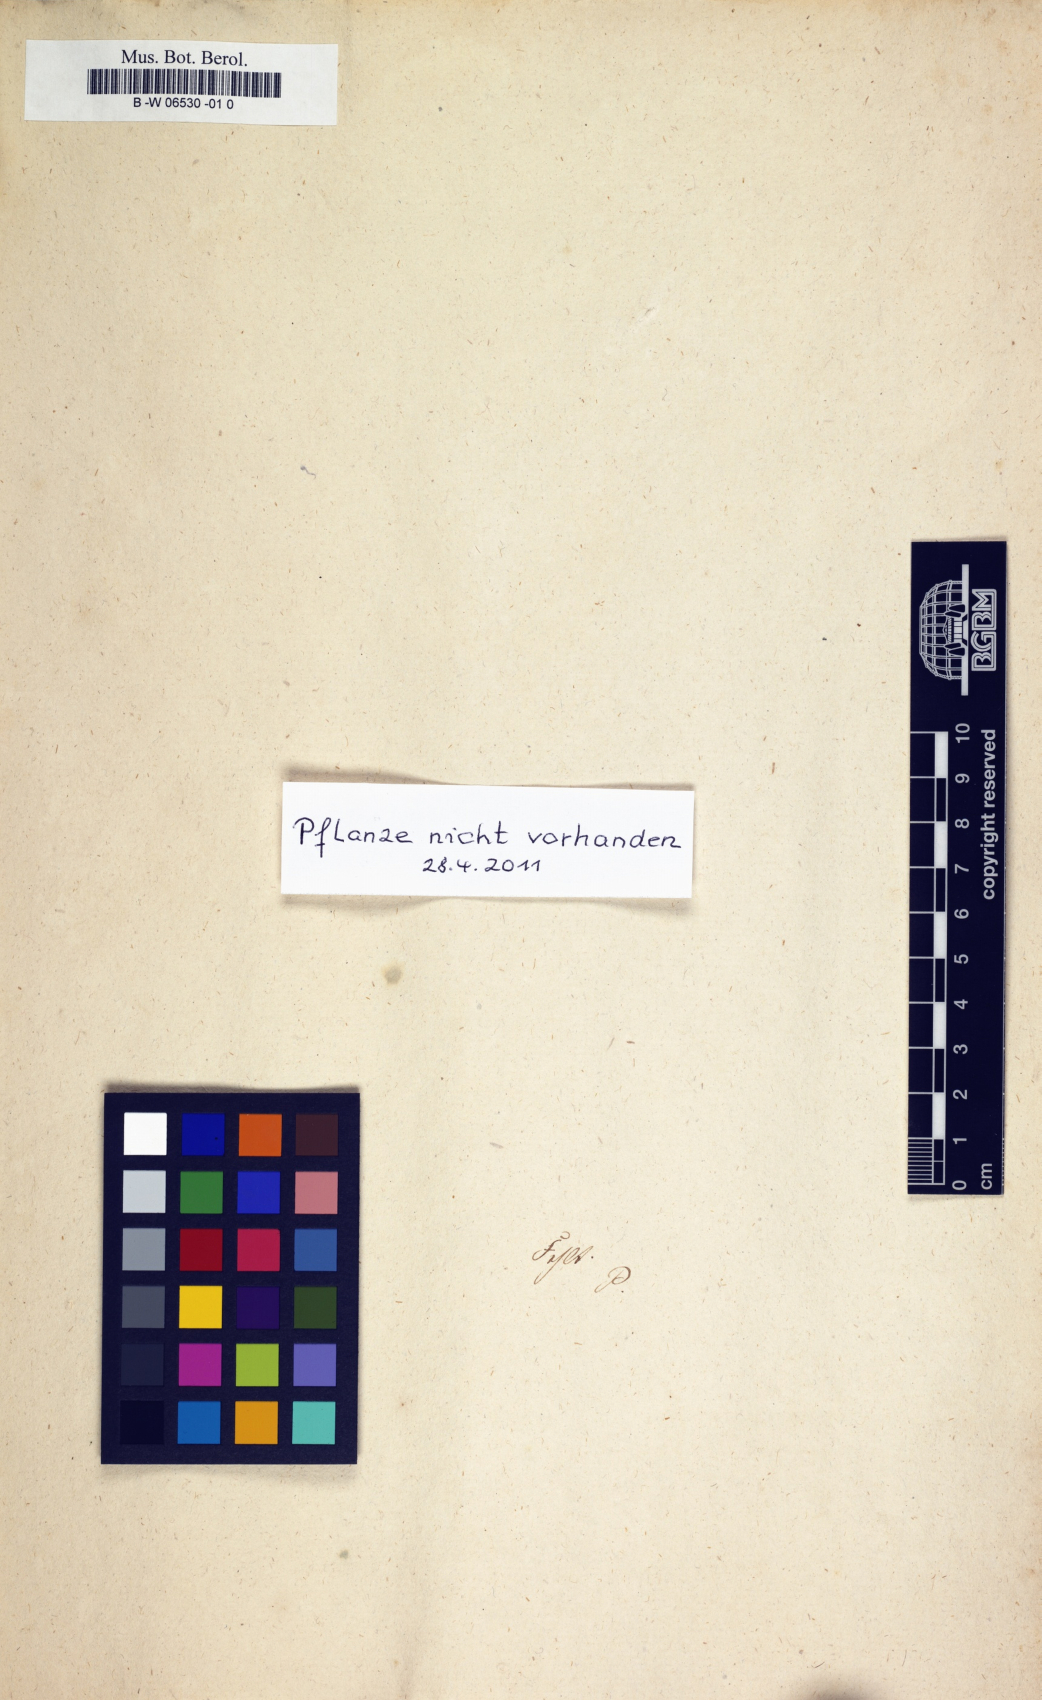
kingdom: Plantae
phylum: Tracheophyta
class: Liliopsida
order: Liliales
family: Liliaceae
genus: Lilium
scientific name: Lilium martagon
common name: Martagon lily
